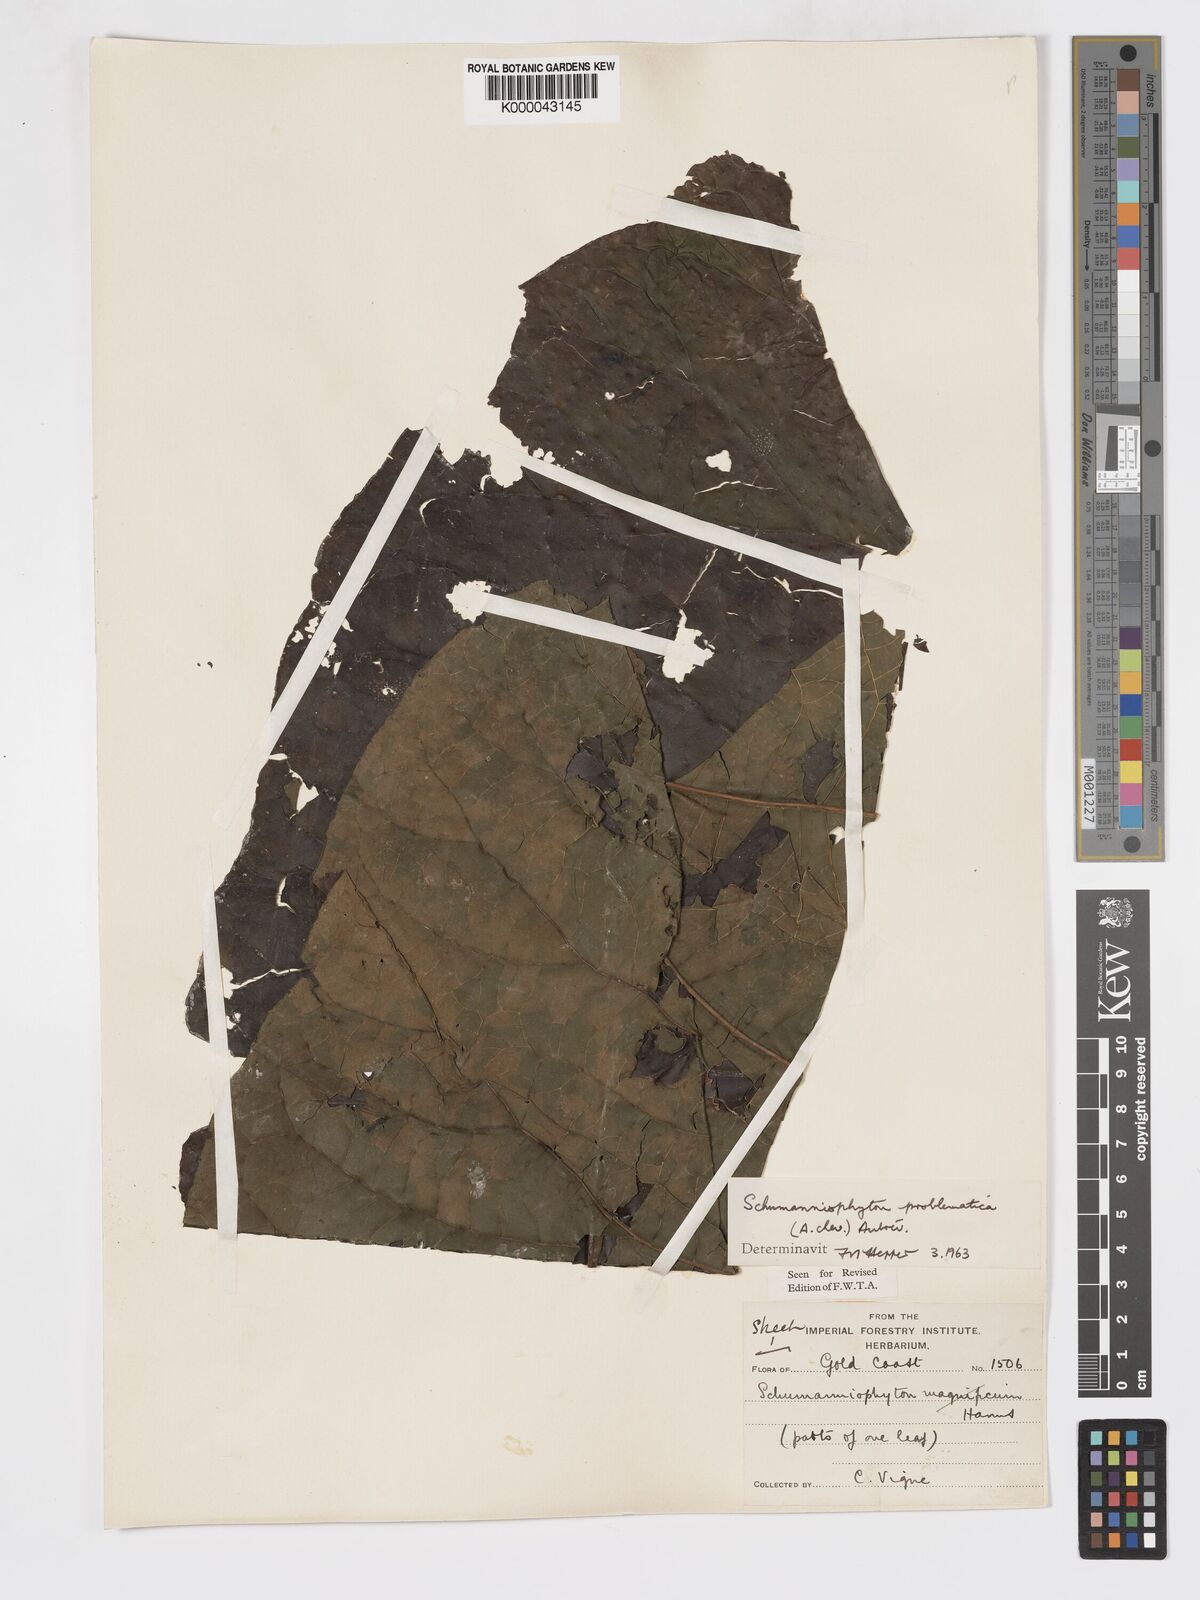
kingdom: Plantae
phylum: Tracheophyta
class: Magnoliopsida
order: Gentianales
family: Rubiaceae
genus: Schumanniophyton
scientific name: Schumanniophyton
